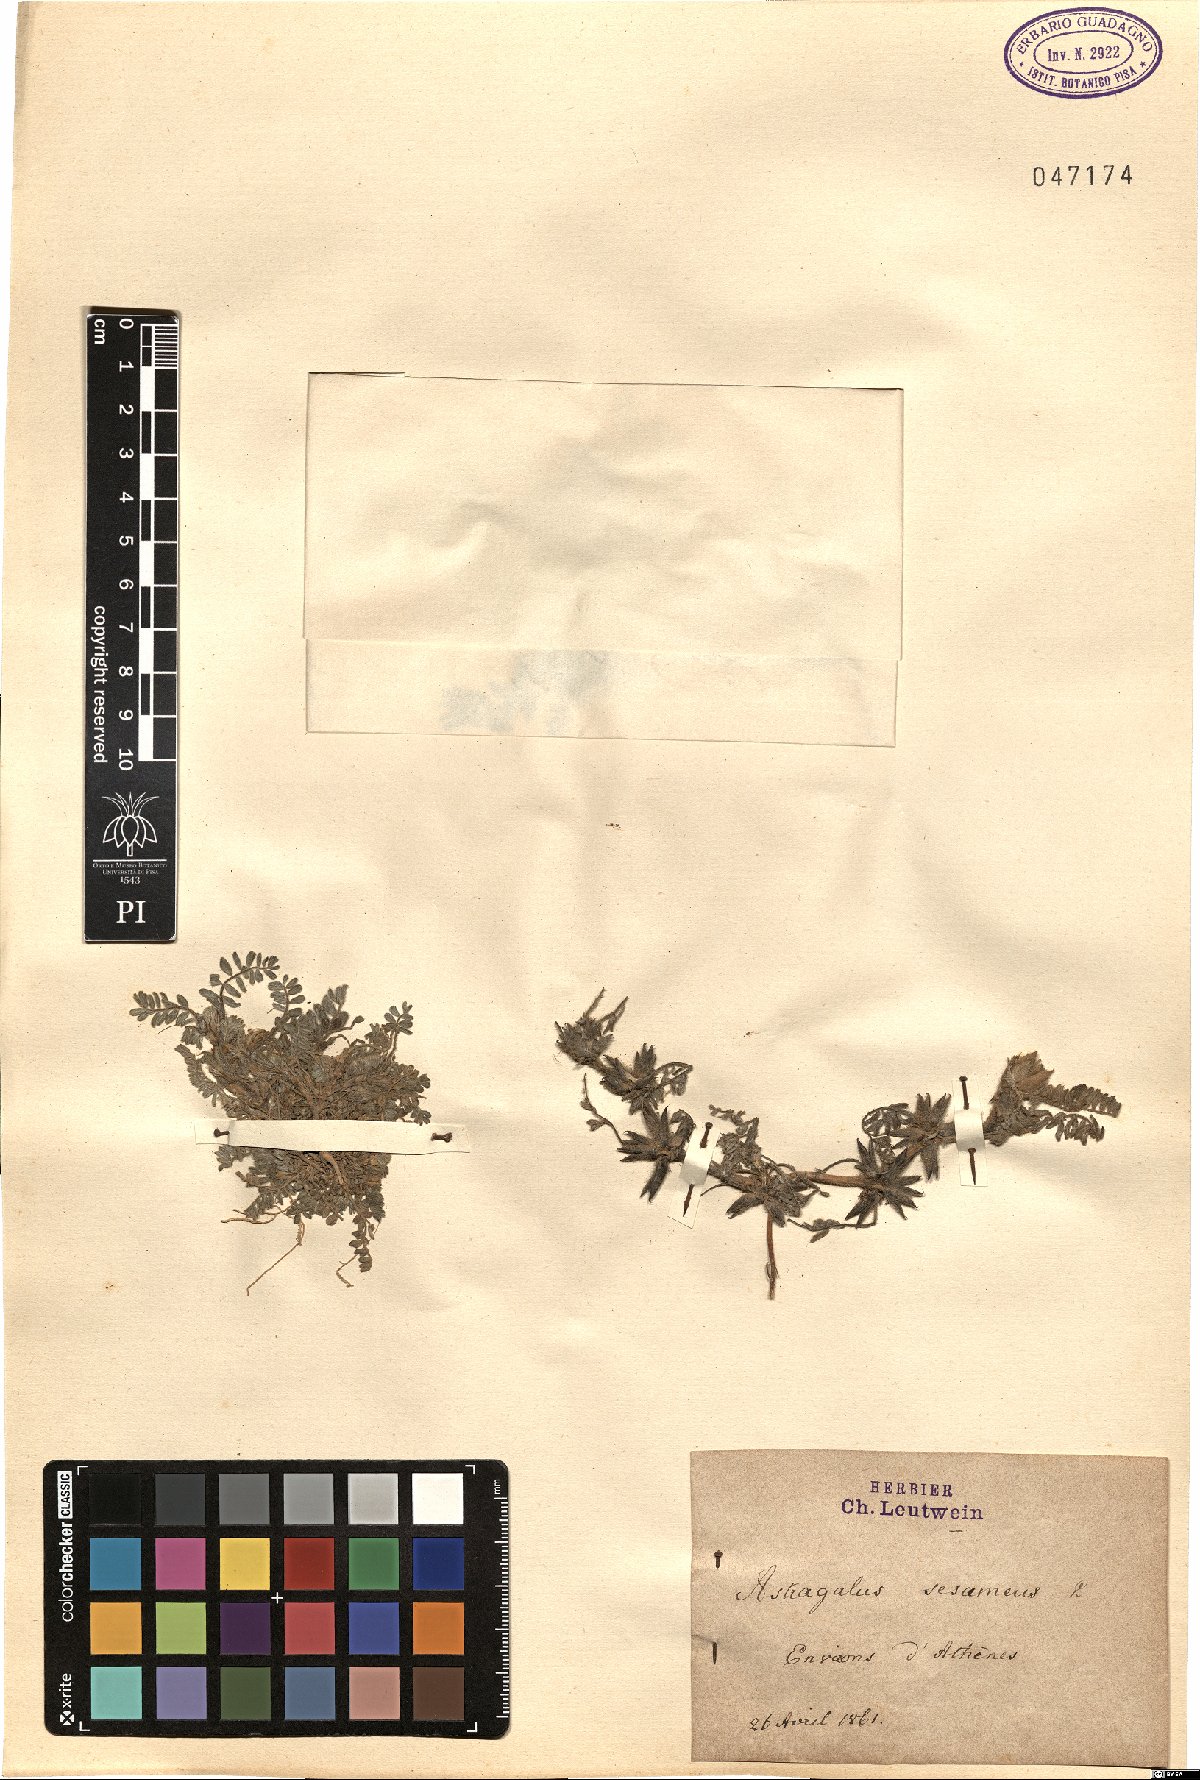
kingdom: Plantae
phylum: Tracheophyta
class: Magnoliopsida
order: Fabales
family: Fabaceae
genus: Astragalus
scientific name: Astragalus sesameus
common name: Purple milk-vetch
